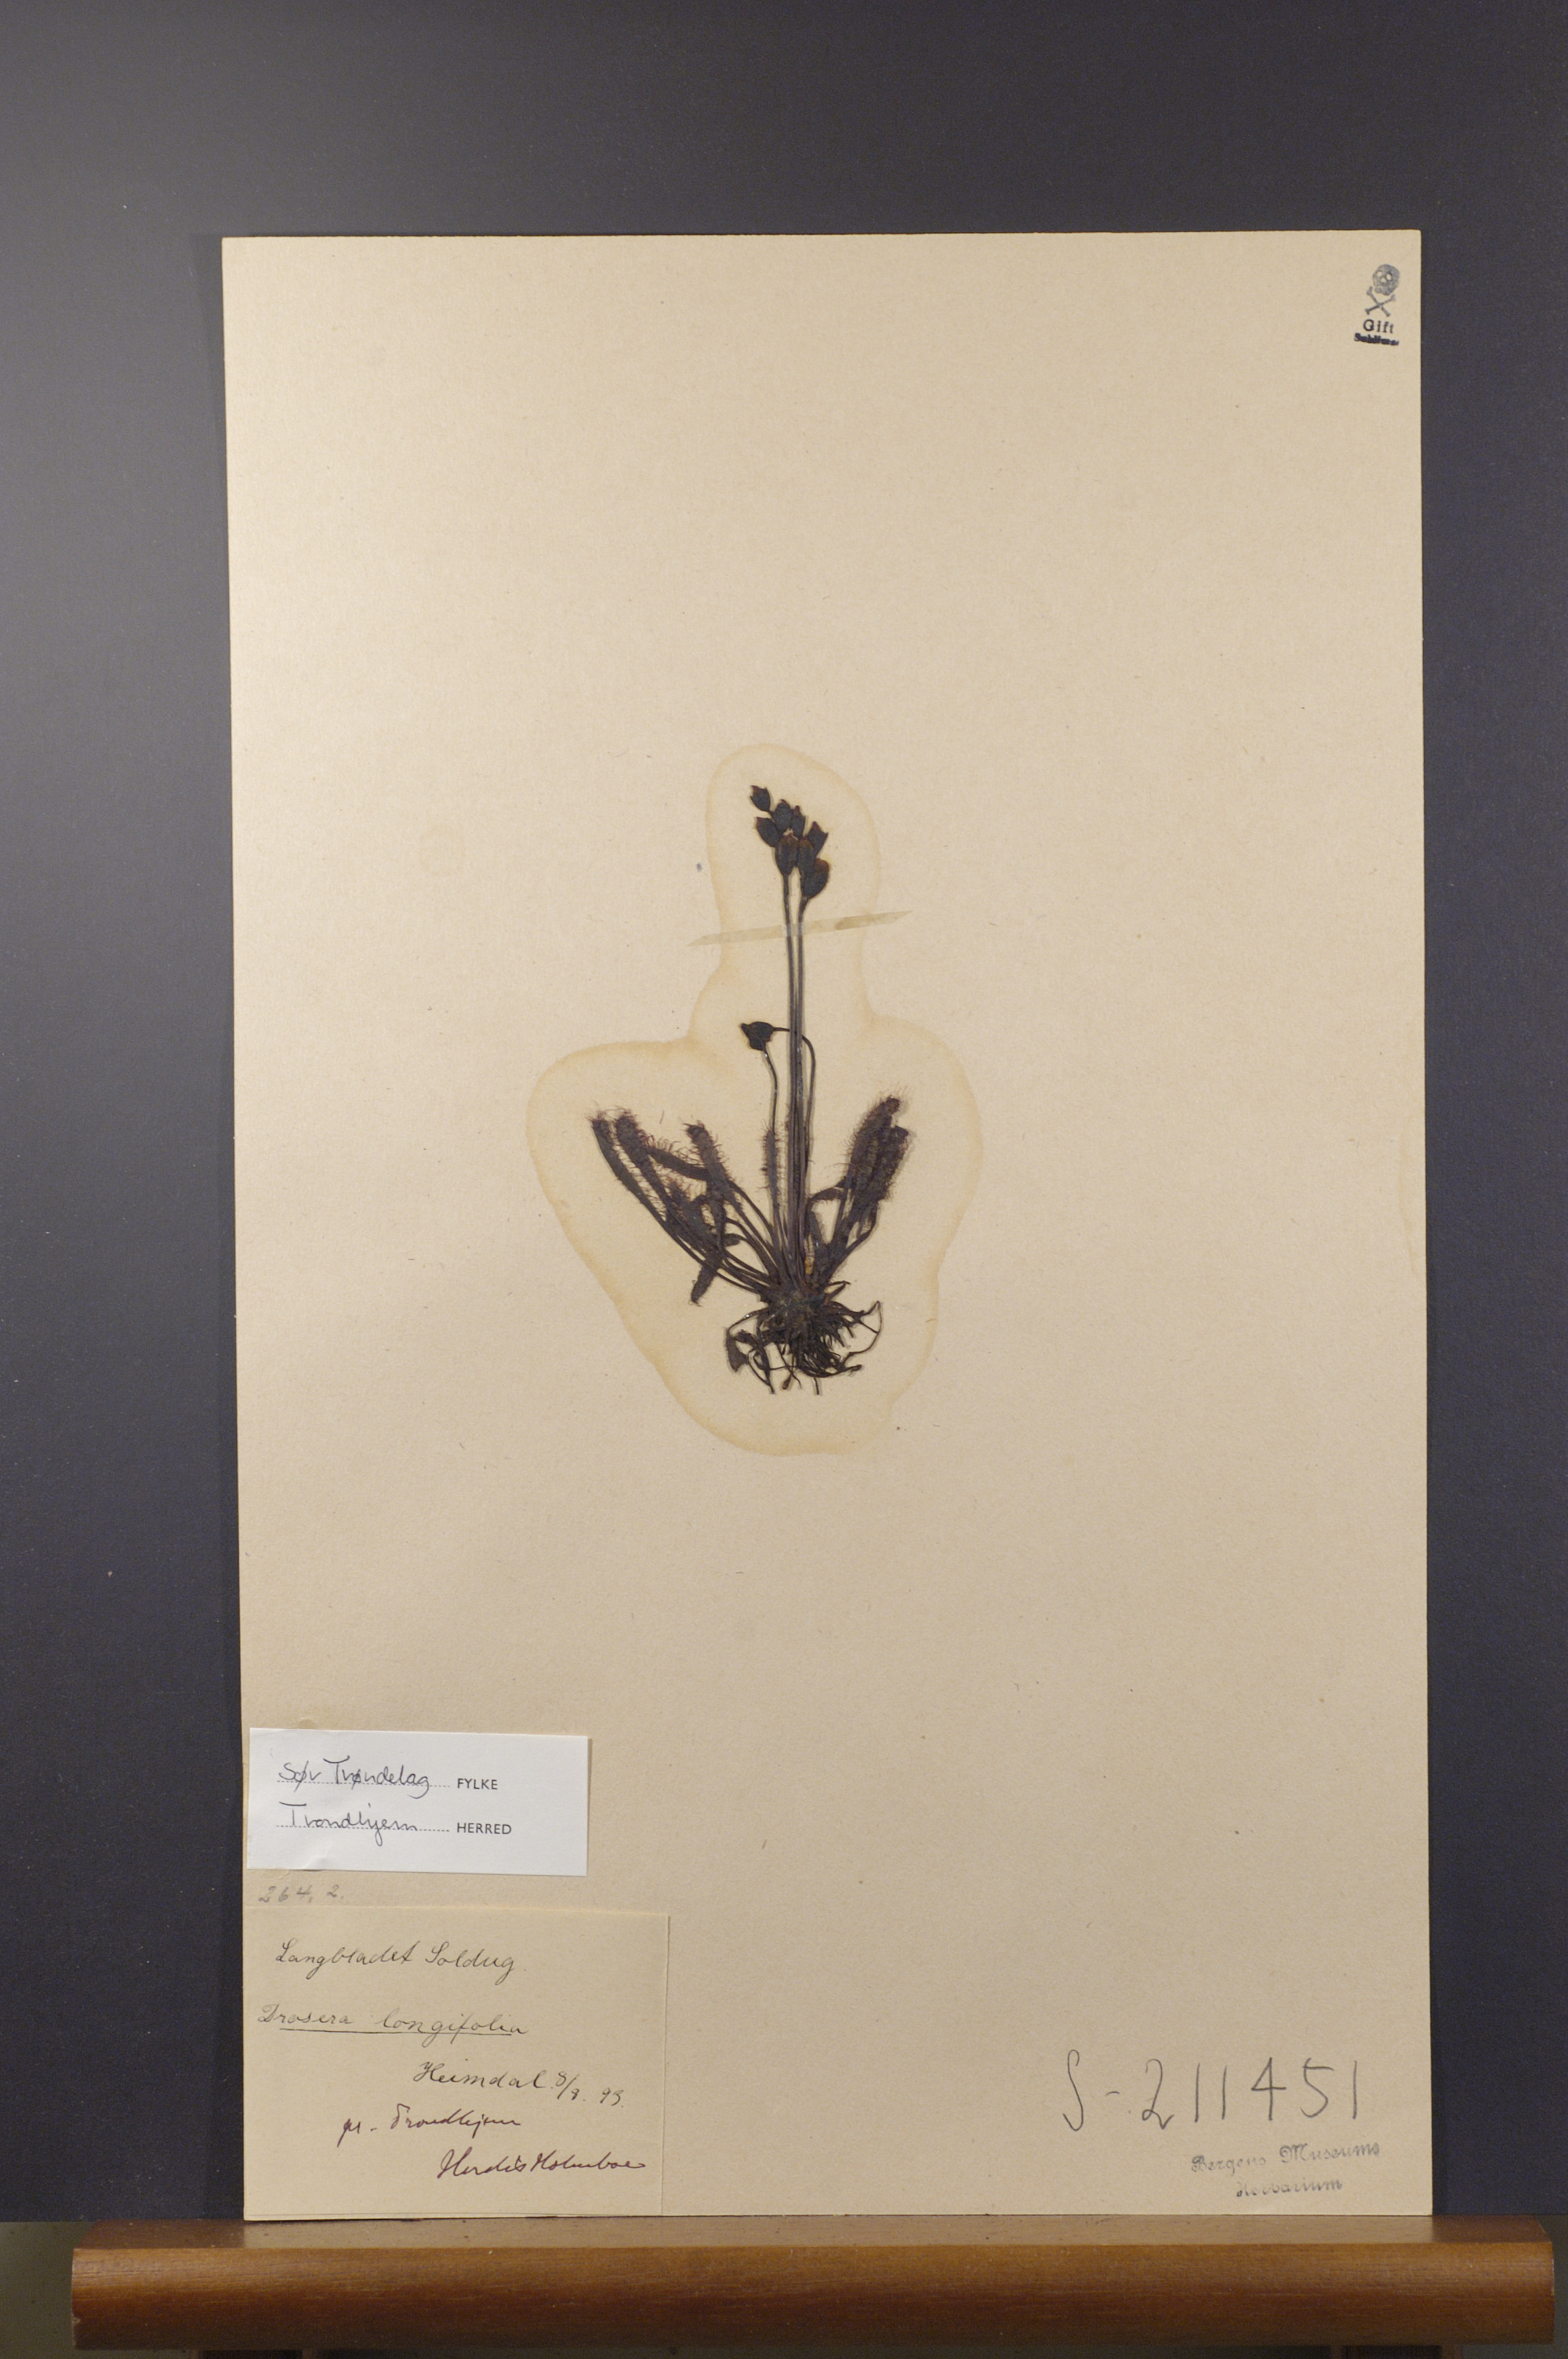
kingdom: Plantae
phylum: Tracheophyta
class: Magnoliopsida
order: Caryophyllales
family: Droseraceae
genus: Drosera
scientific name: Drosera anglica
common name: Great sundew
